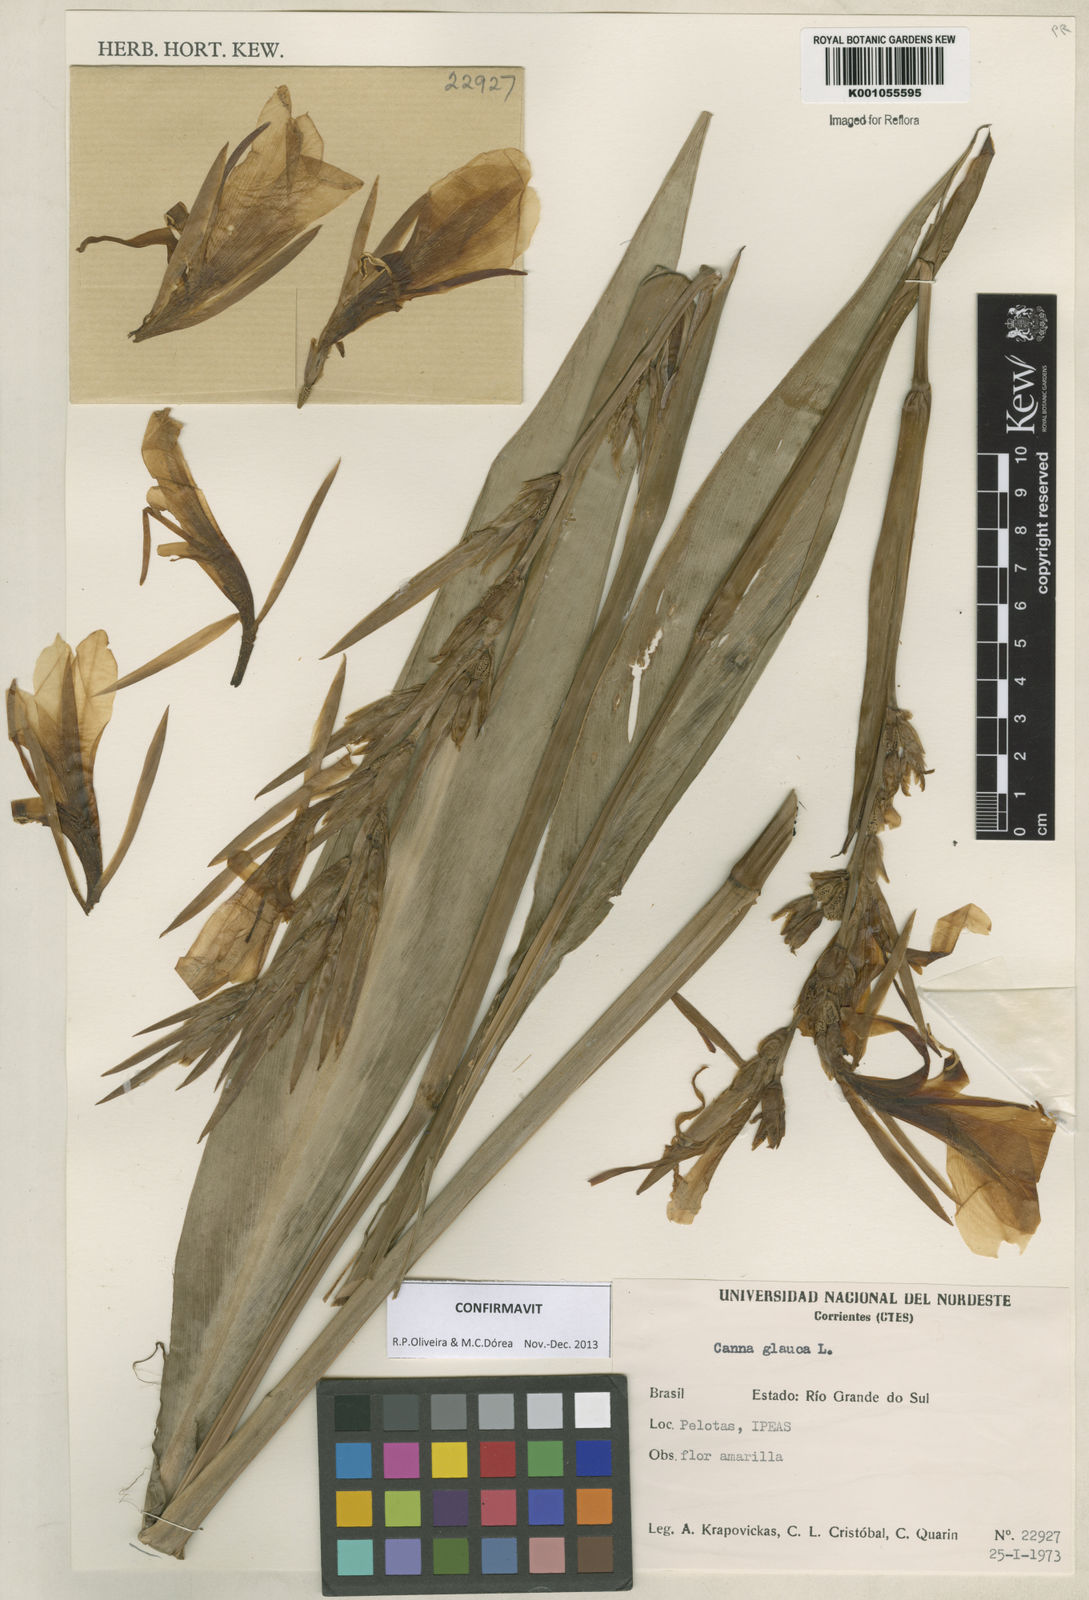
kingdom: Plantae
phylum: Tracheophyta
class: Liliopsida
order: Zingiberales
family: Cannaceae
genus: Canna
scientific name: Canna glauca
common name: Louisiana canna
